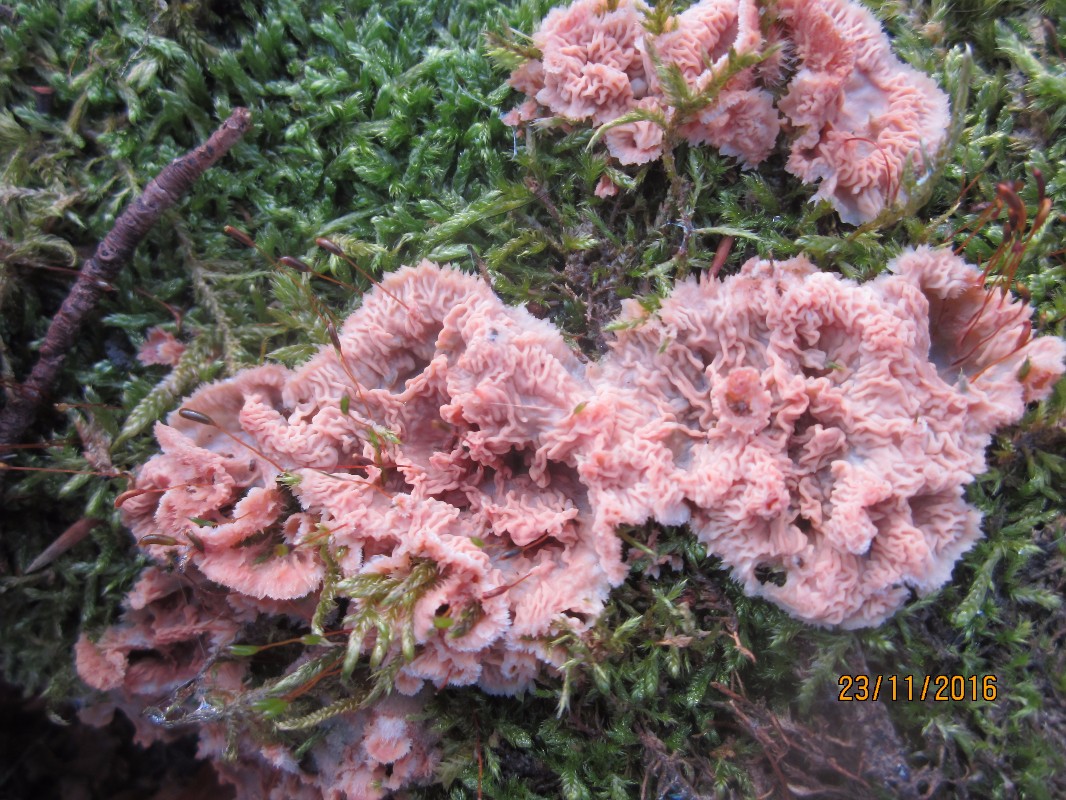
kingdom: Fungi
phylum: Basidiomycota
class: Agaricomycetes
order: Polyporales
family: Meruliaceae
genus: Phlebia
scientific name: Phlebia radiata
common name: stråle-åresvamp
